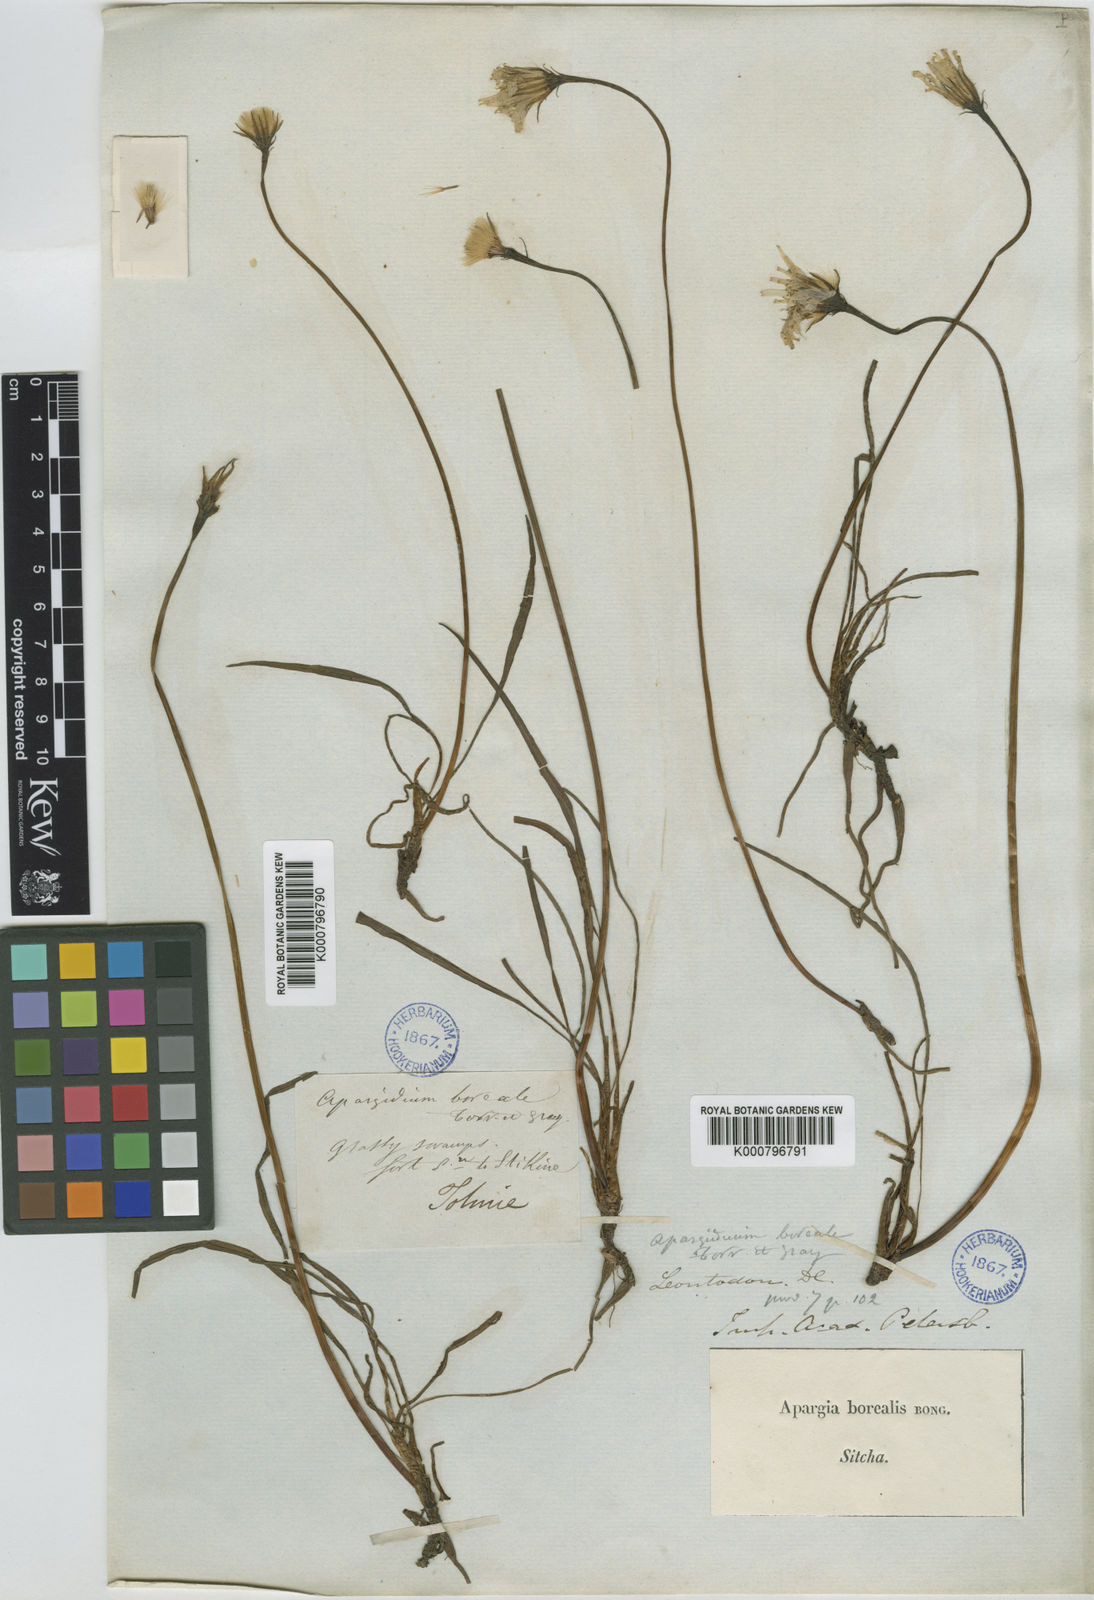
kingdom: Plantae
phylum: Tracheophyta
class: Magnoliopsida
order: Asterales
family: Asteraceae
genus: Microseris
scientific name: Microseris
